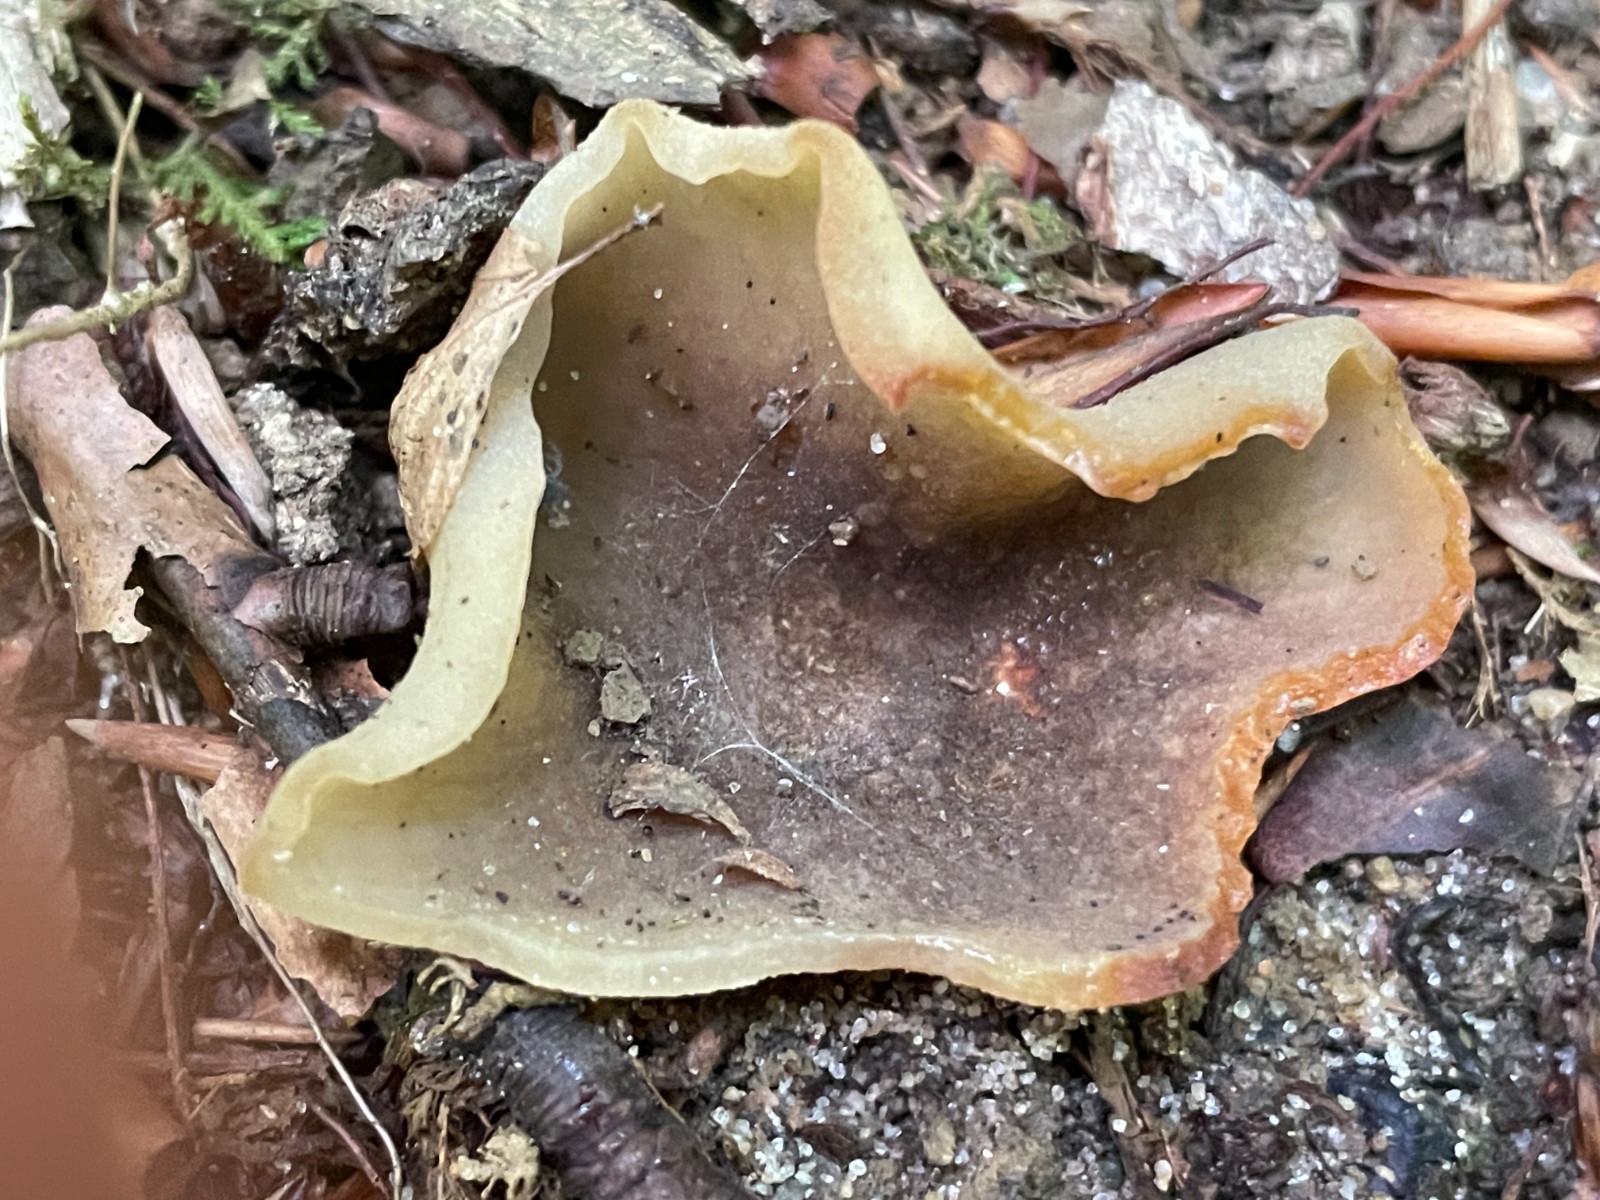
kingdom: Fungi
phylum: Ascomycota
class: Pezizomycetes
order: Pezizales
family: Pezizaceae
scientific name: Pezizaceae
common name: bægersvampfamilien
